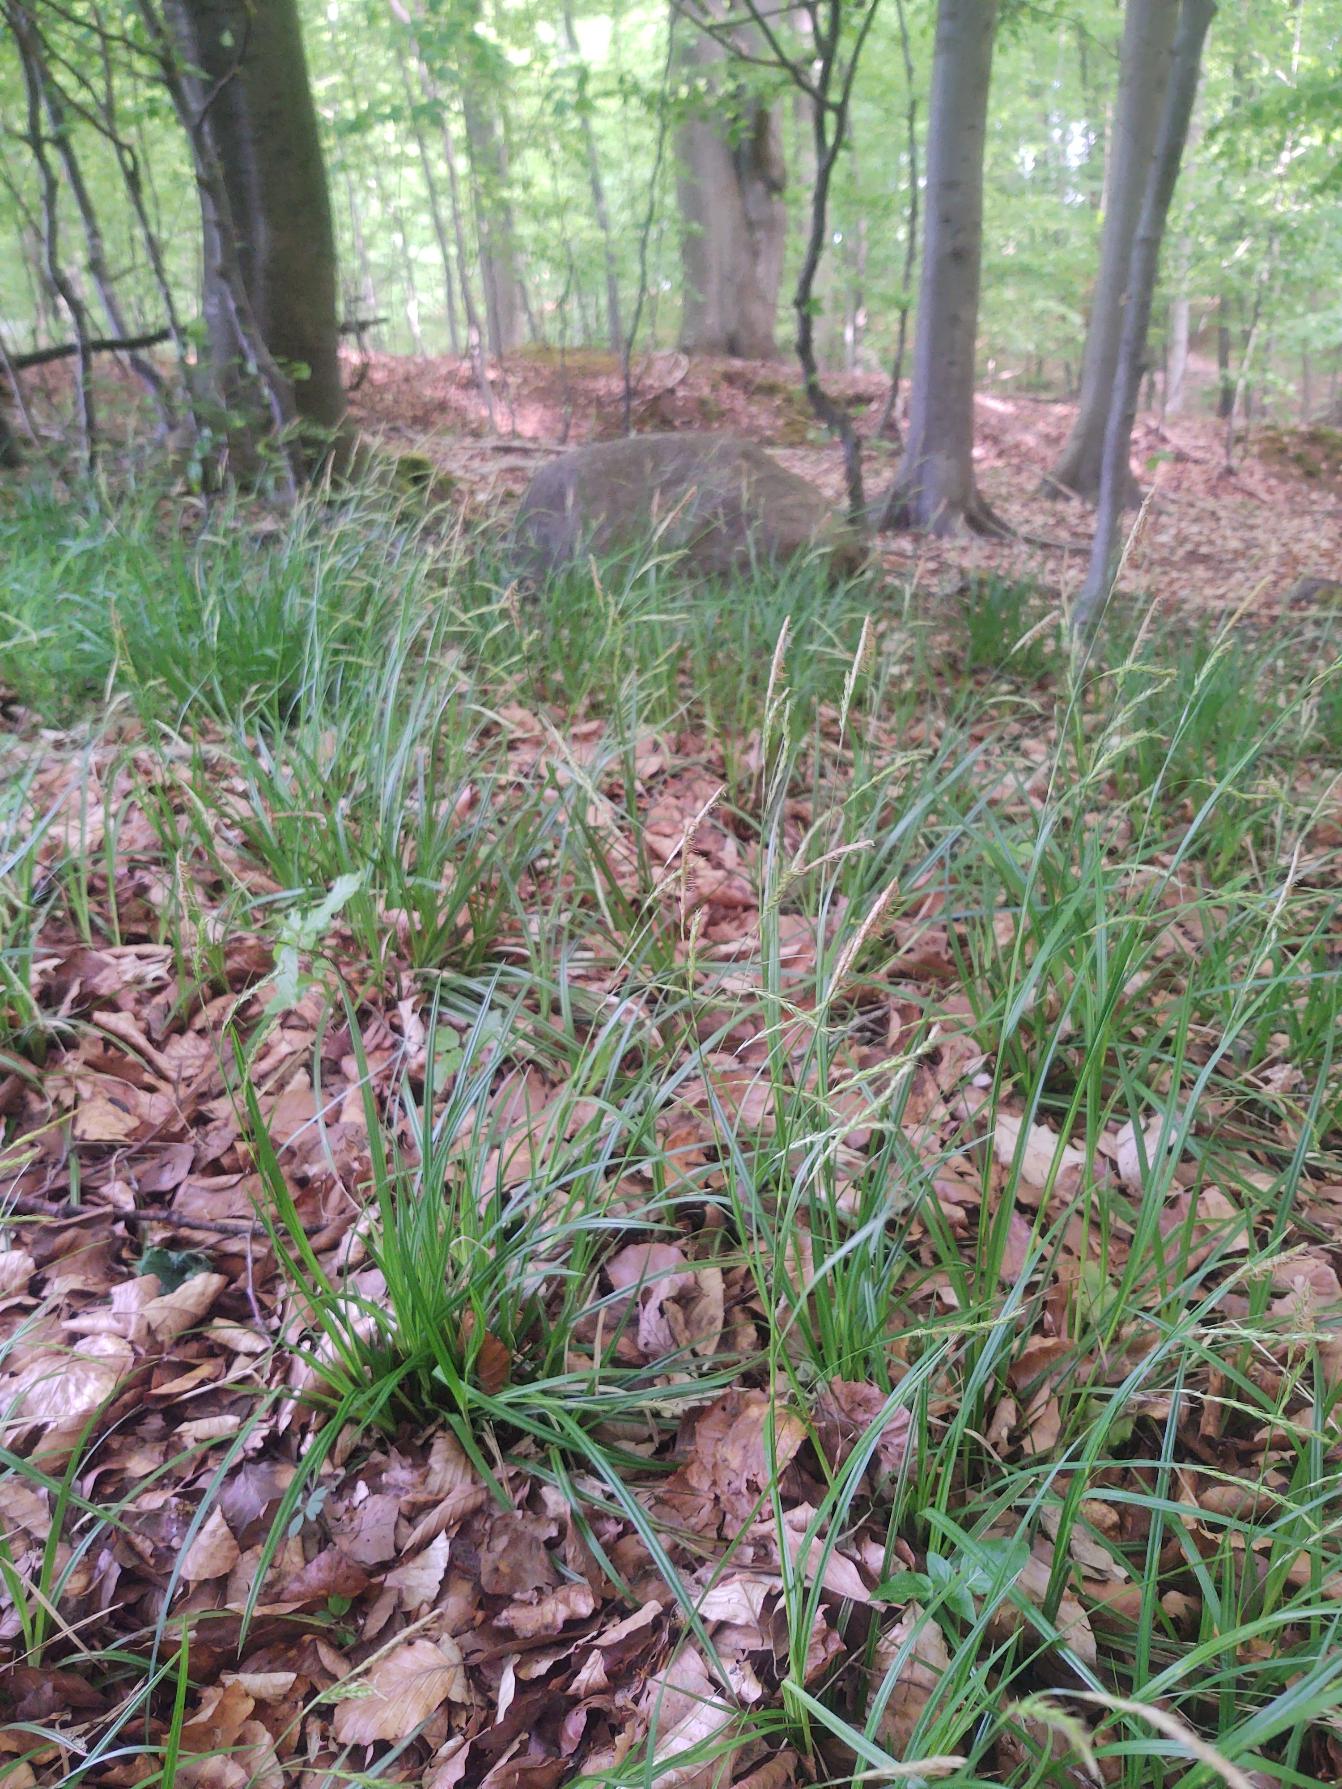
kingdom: Plantae
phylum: Tracheophyta
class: Liliopsida
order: Poales
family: Cyperaceae
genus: Carex
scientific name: Carex sylvatica
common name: Skov-star
